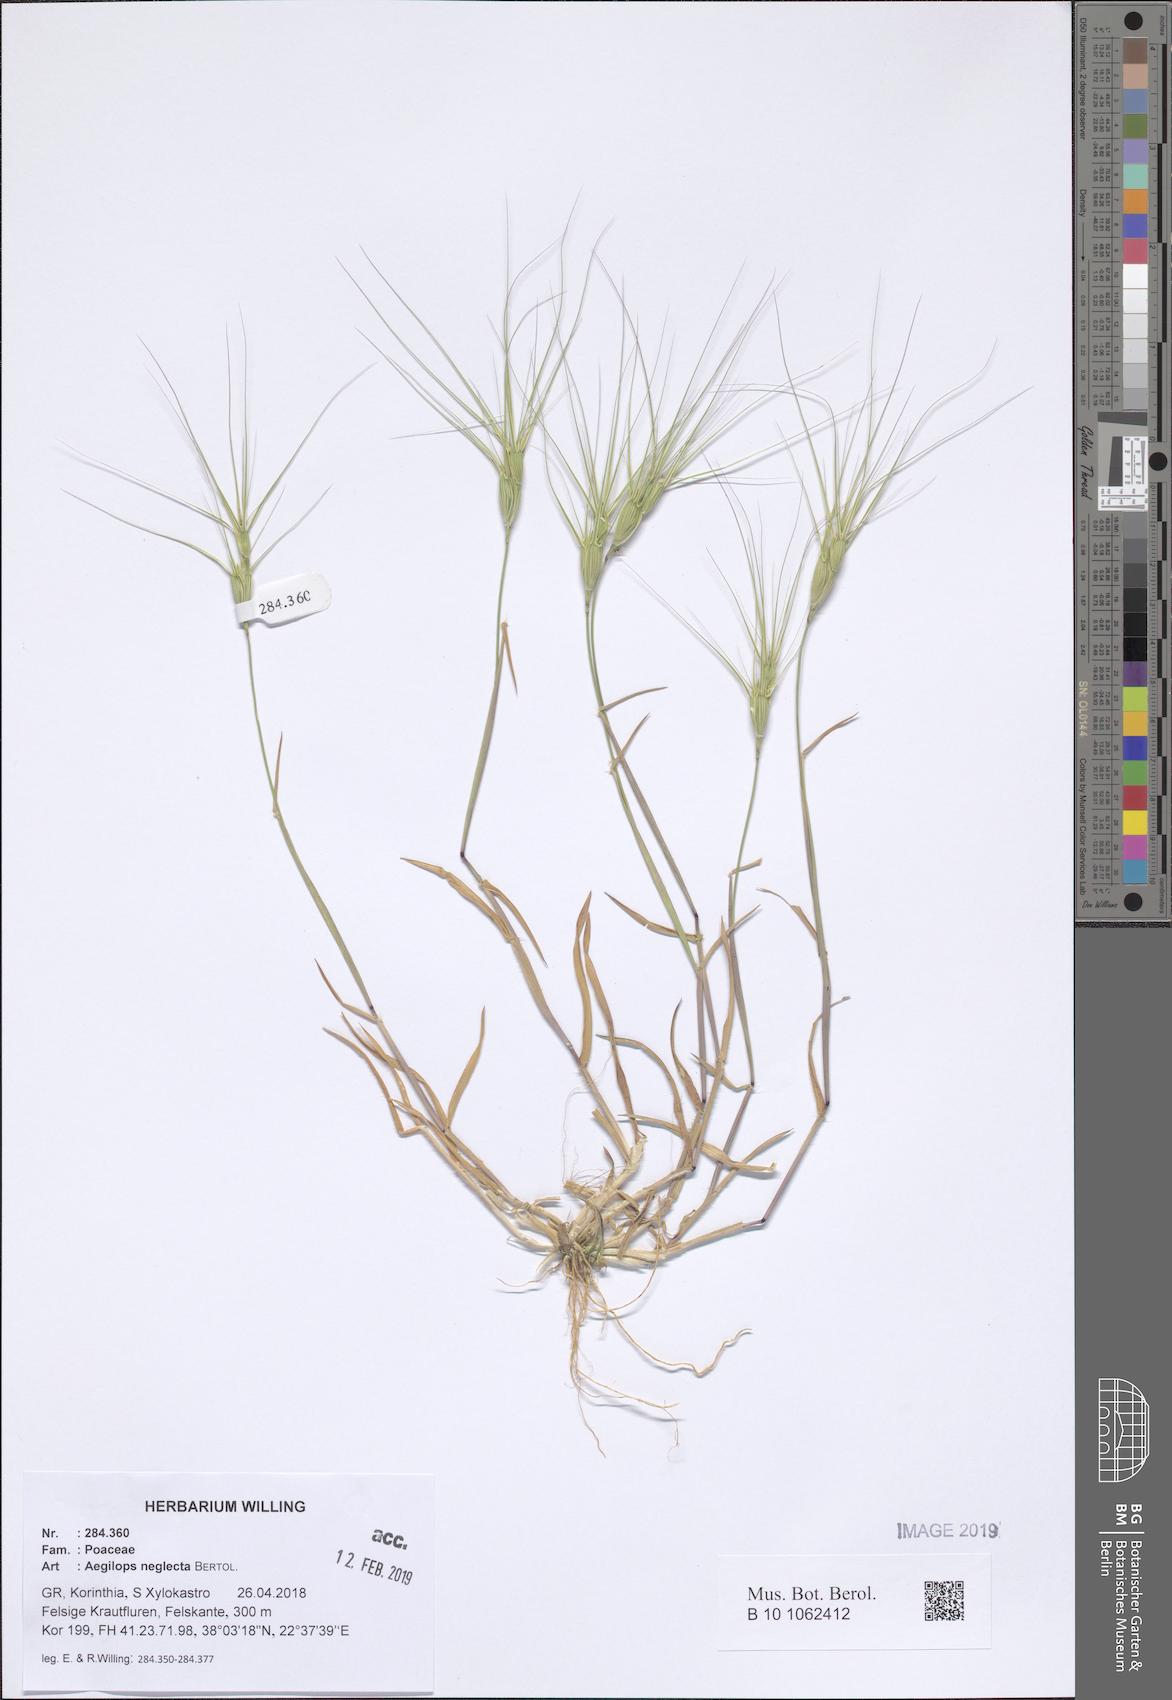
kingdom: Plantae
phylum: Tracheophyta
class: Liliopsida
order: Poales
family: Poaceae
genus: Aegilops
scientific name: Aegilops neglecta
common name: Three-awn goat grass
